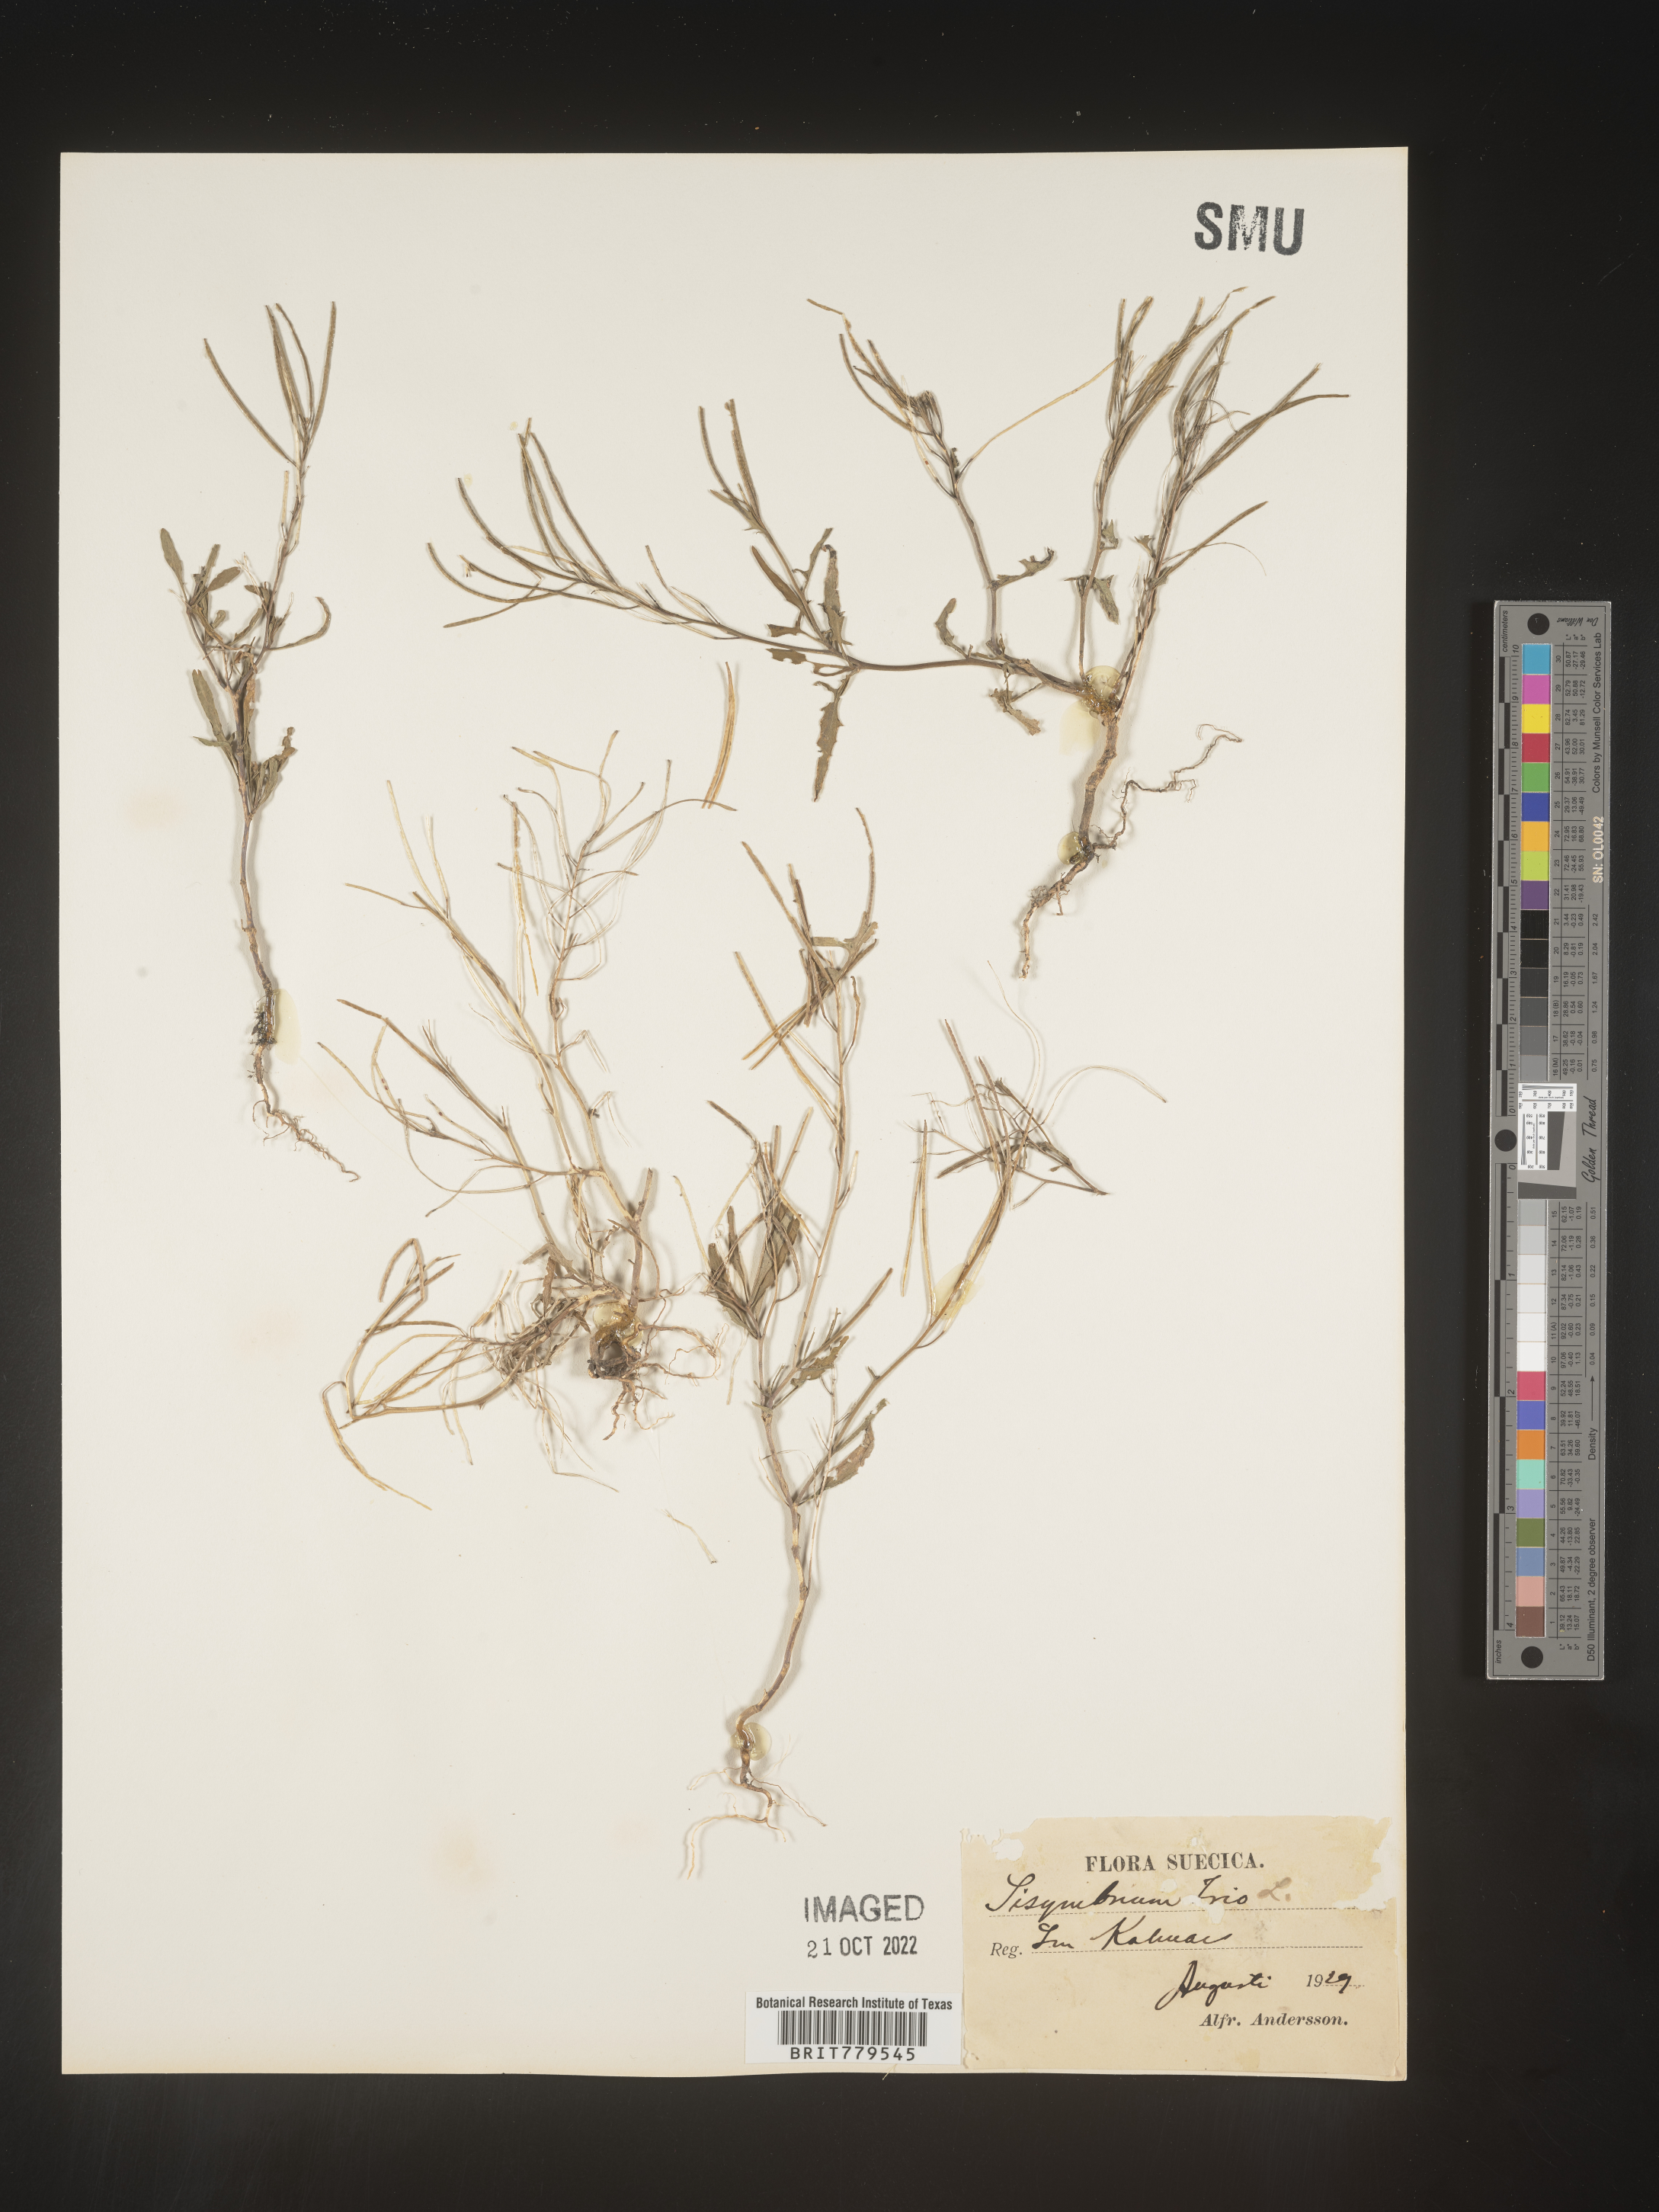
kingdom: Plantae
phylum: Tracheophyta
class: Magnoliopsida
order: Brassicales
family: Brassicaceae
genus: Sisymbrium
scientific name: Sisymbrium
